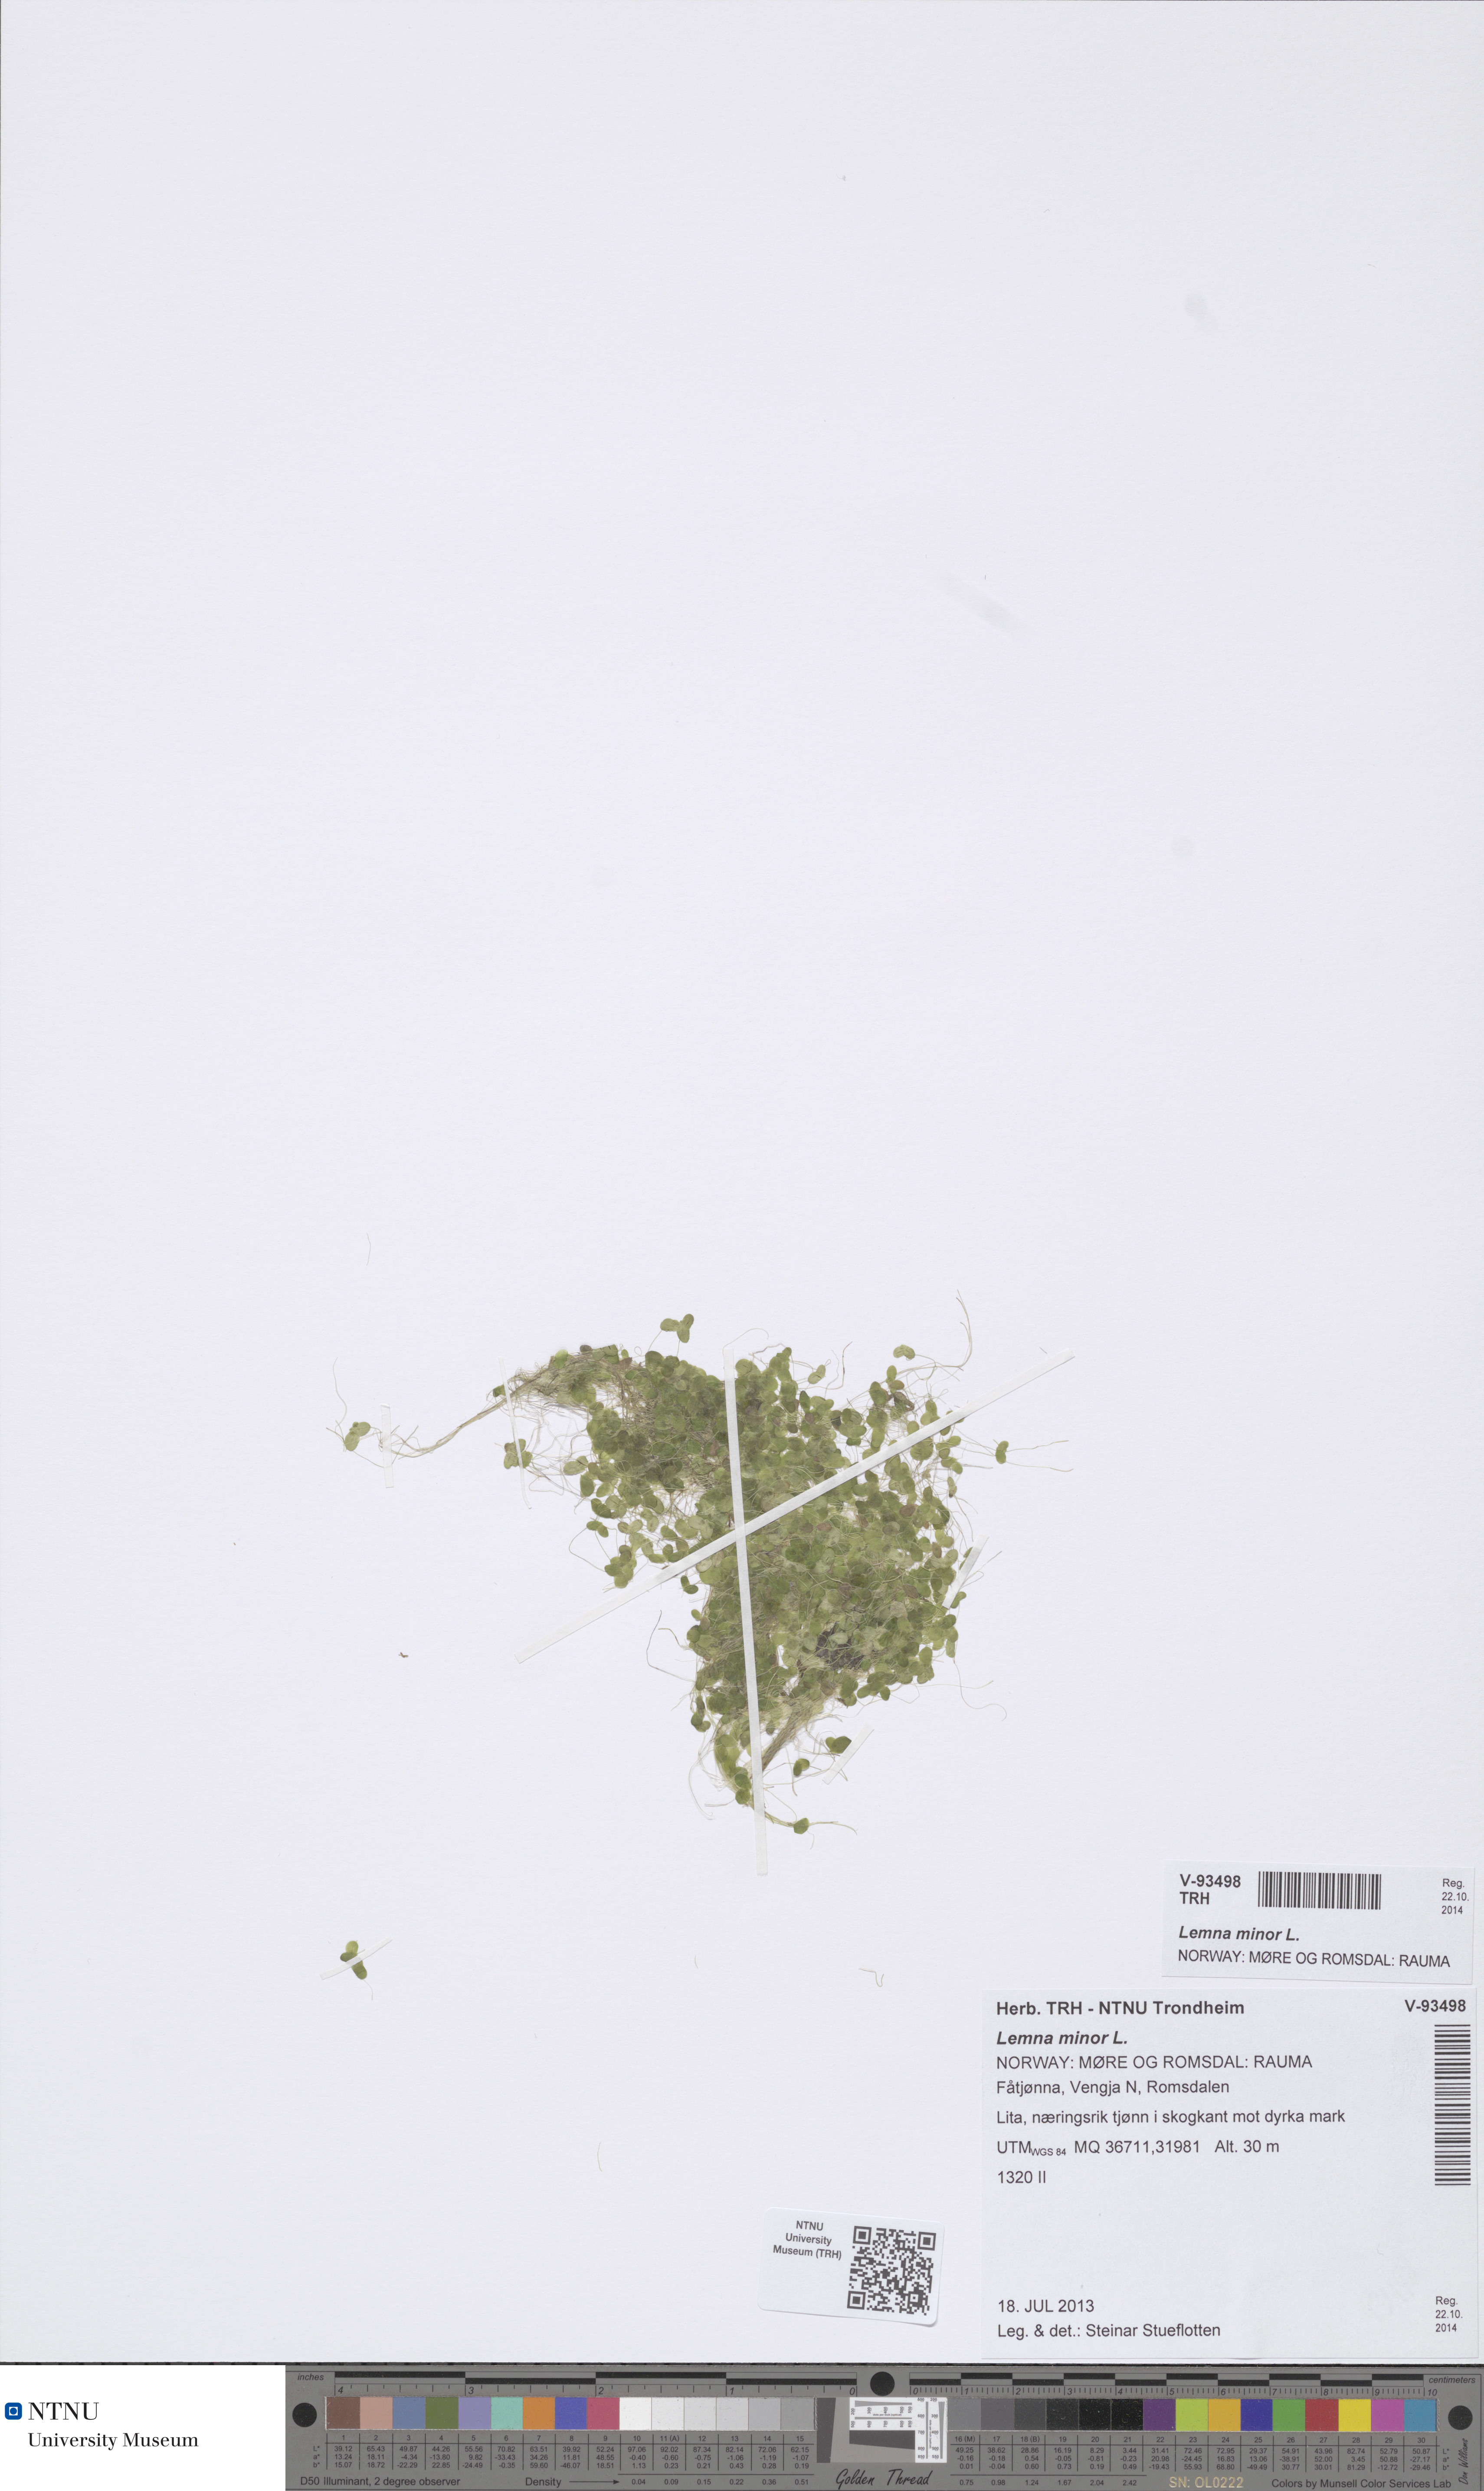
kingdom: Plantae
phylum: Tracheophyta
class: Liliopsida
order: Alismatales
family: Araceae
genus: Lemna
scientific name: Lemna minor
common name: Common duckweed
